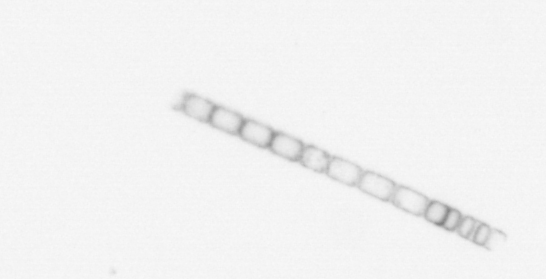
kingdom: Chromista
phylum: Ochrophyta
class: Bacillariophyceae
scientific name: Bacillariophyceae
